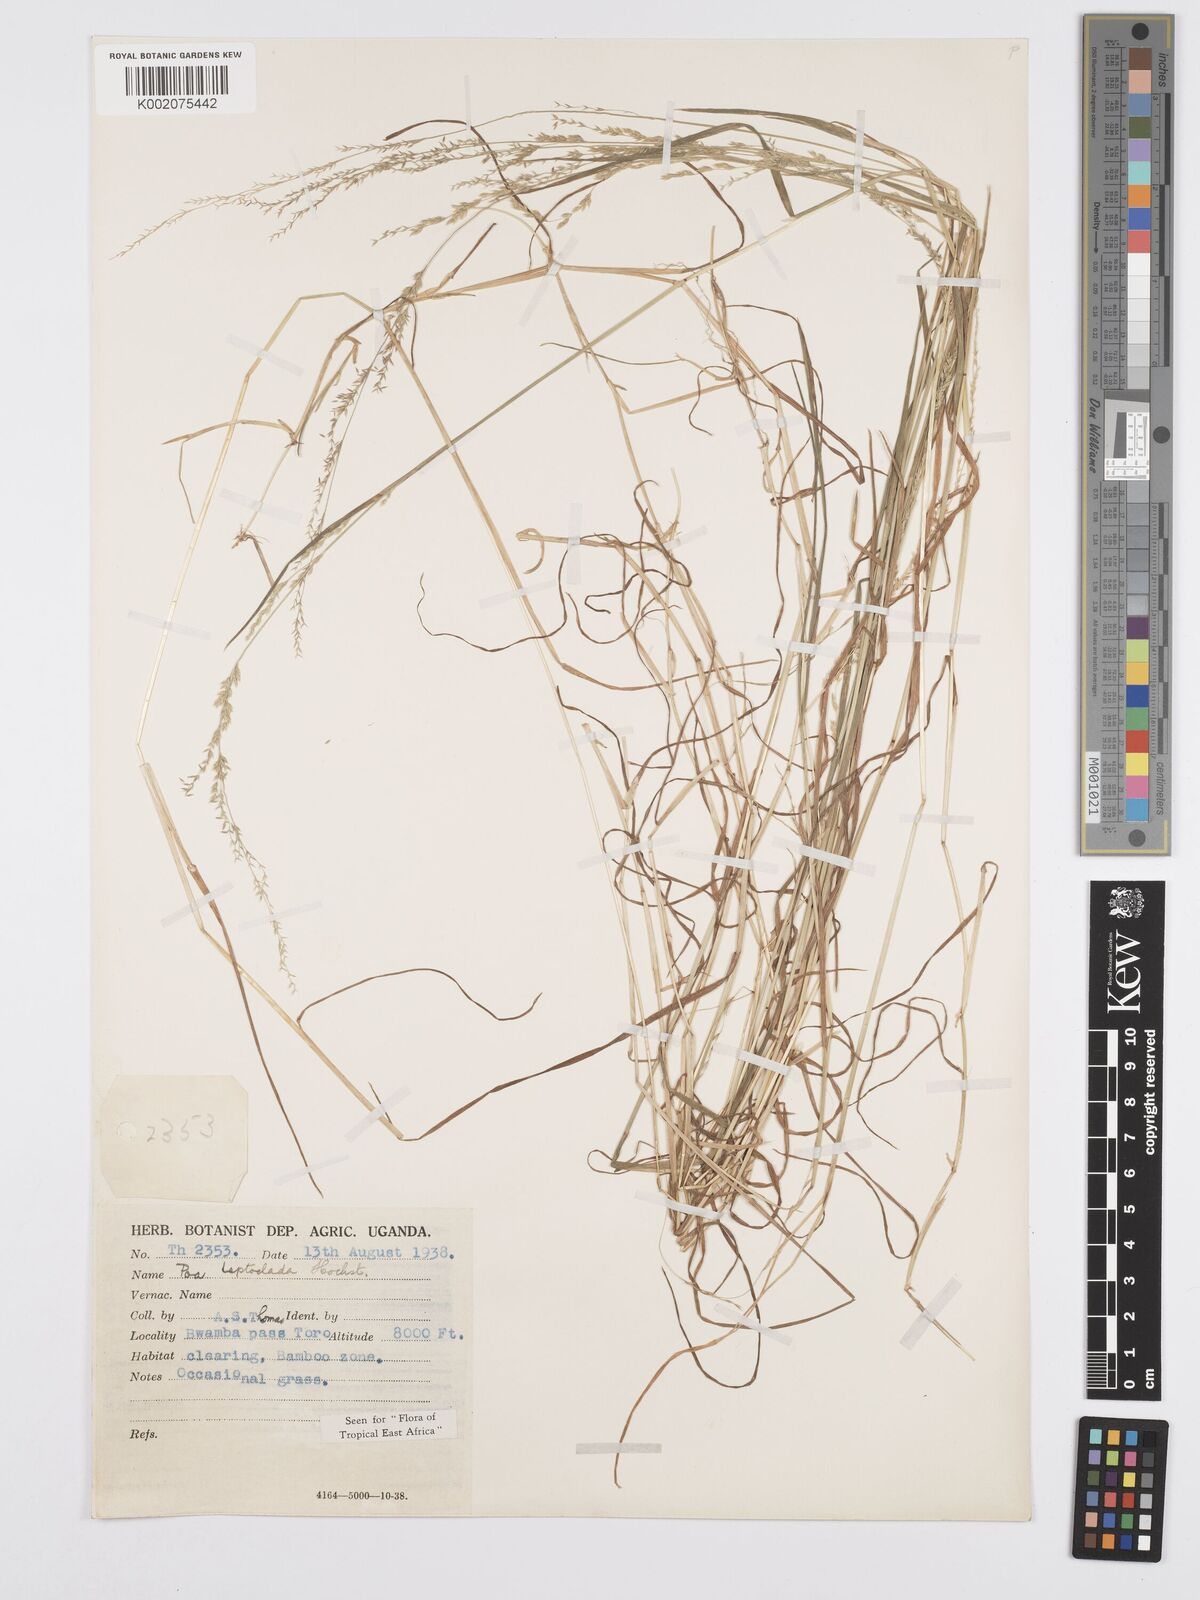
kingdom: Plantae
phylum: Tracheophyta
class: Liliopsida
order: Poales
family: Poaceae
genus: Poa
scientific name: Poa
